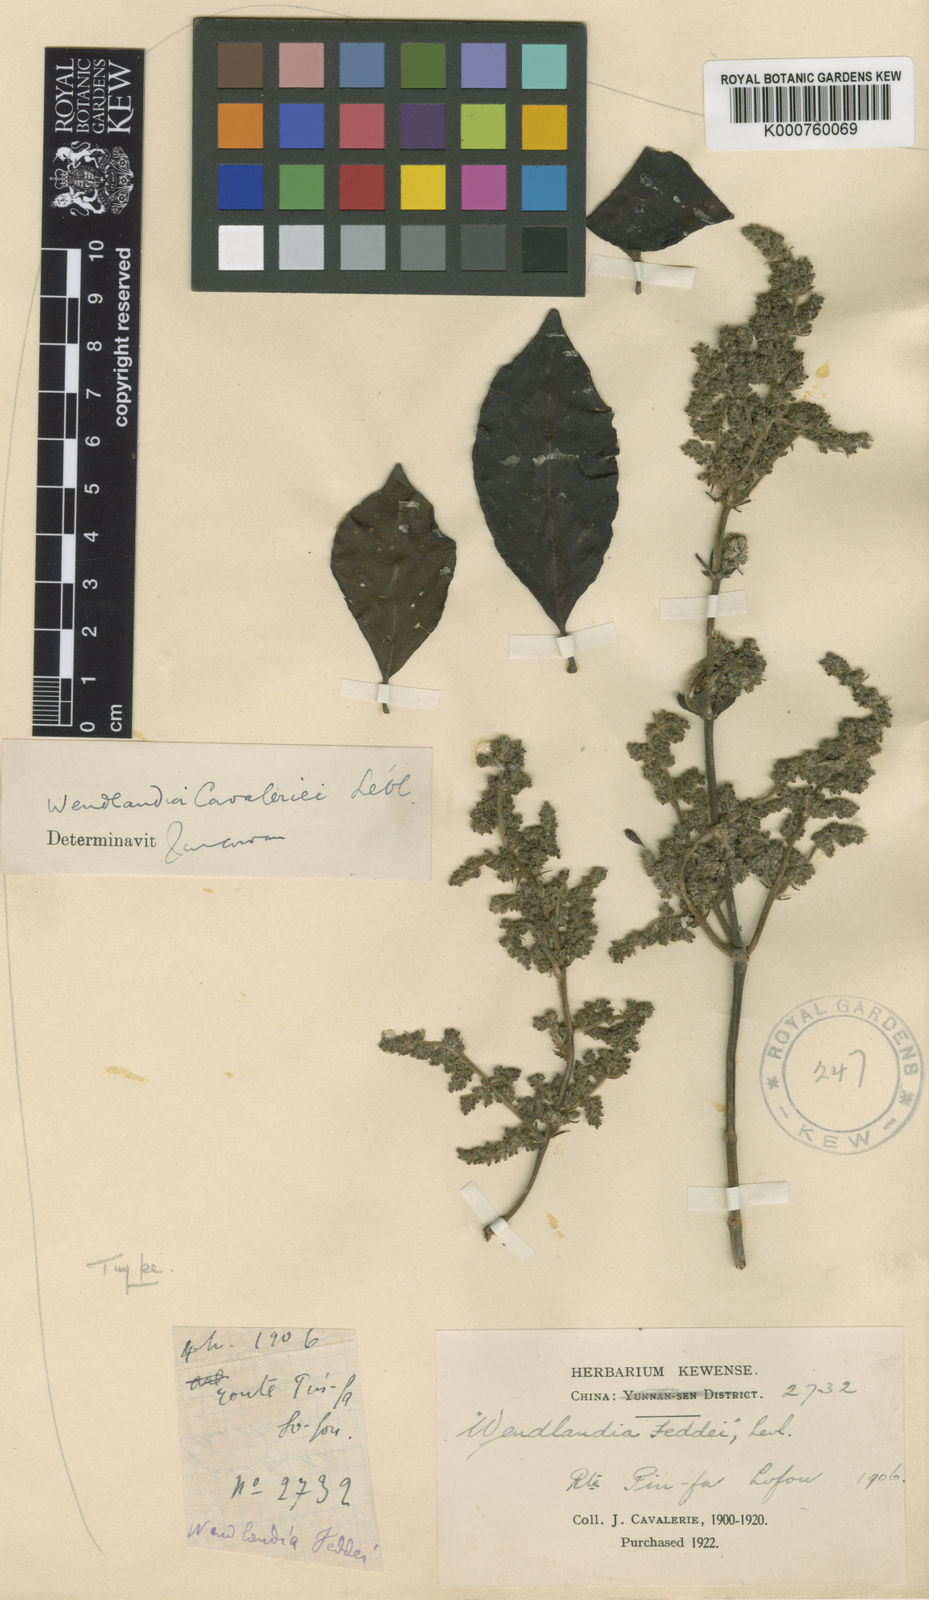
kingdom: Plantae
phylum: Tracheophyta
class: Magnoliopsida
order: Gentianales
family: Rubiaceae
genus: Wendlandia
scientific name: Wendlandia
